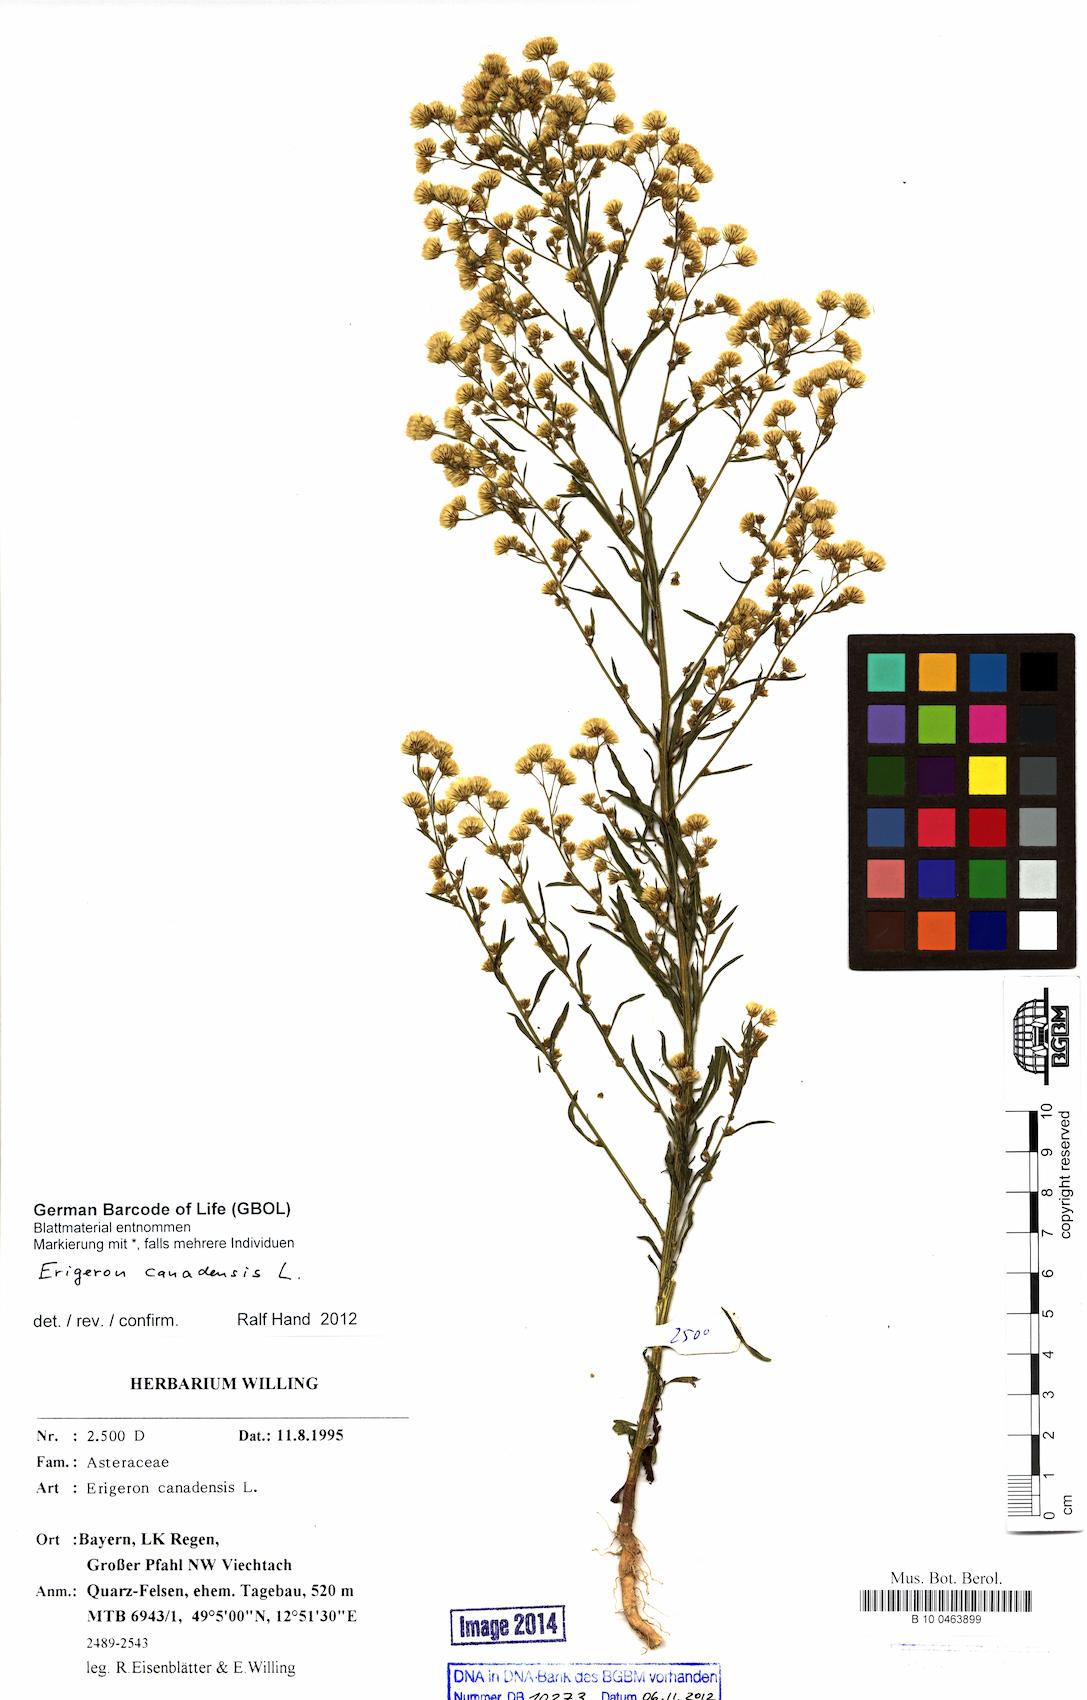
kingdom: Plantae
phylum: Tracheophyta
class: Magnoliopsida
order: Asterales
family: Asteraceae
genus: Erigeron
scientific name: Erigeron canadensis
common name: Canadian fleabane
